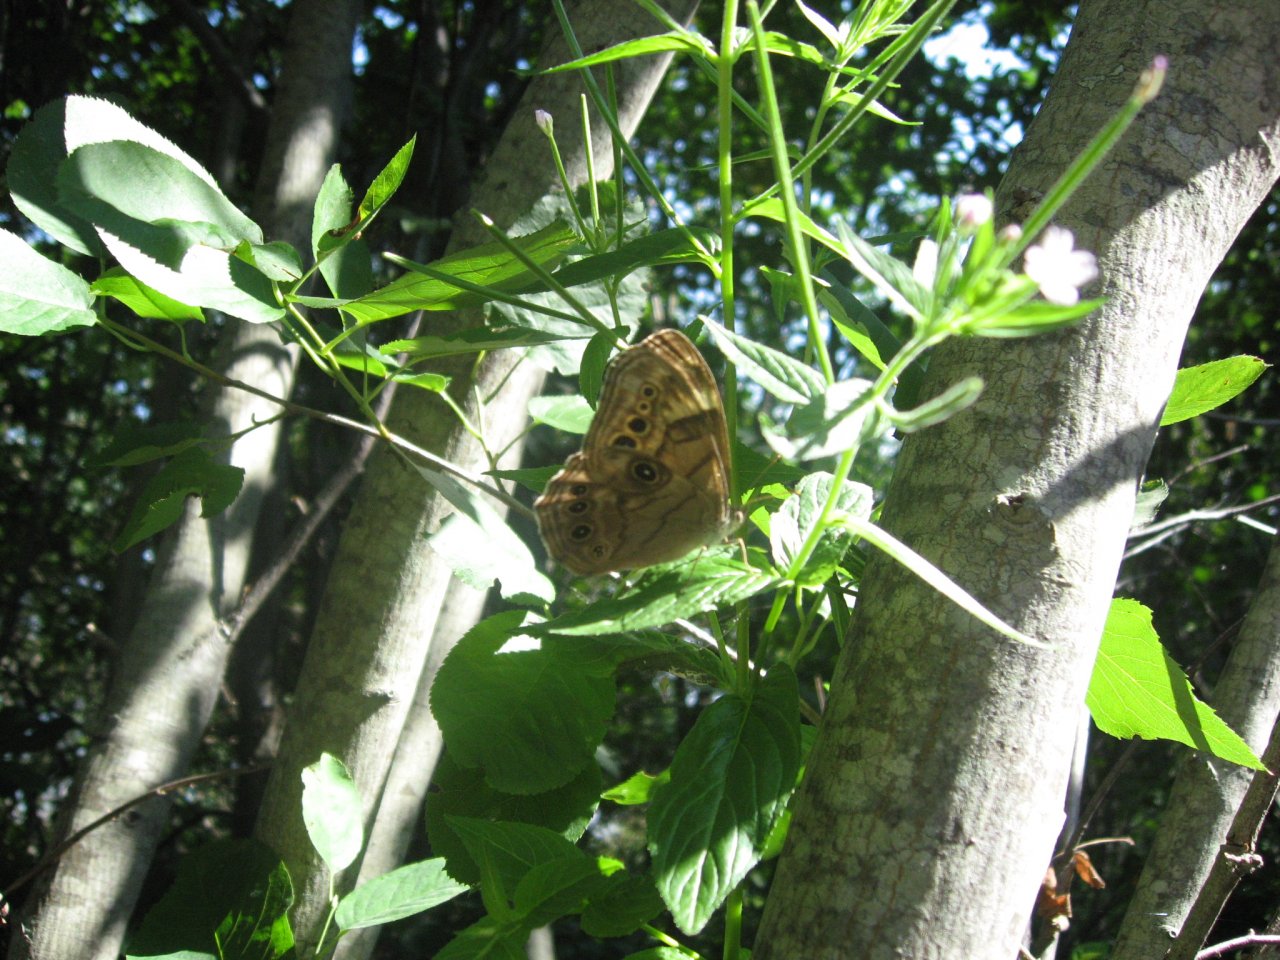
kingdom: Animalia
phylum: Arthropoda
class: Insecta
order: Lepidoptera
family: Nymphalidae
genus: Lethe
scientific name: Lethe anthedon
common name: Northern Pearly-Eye
